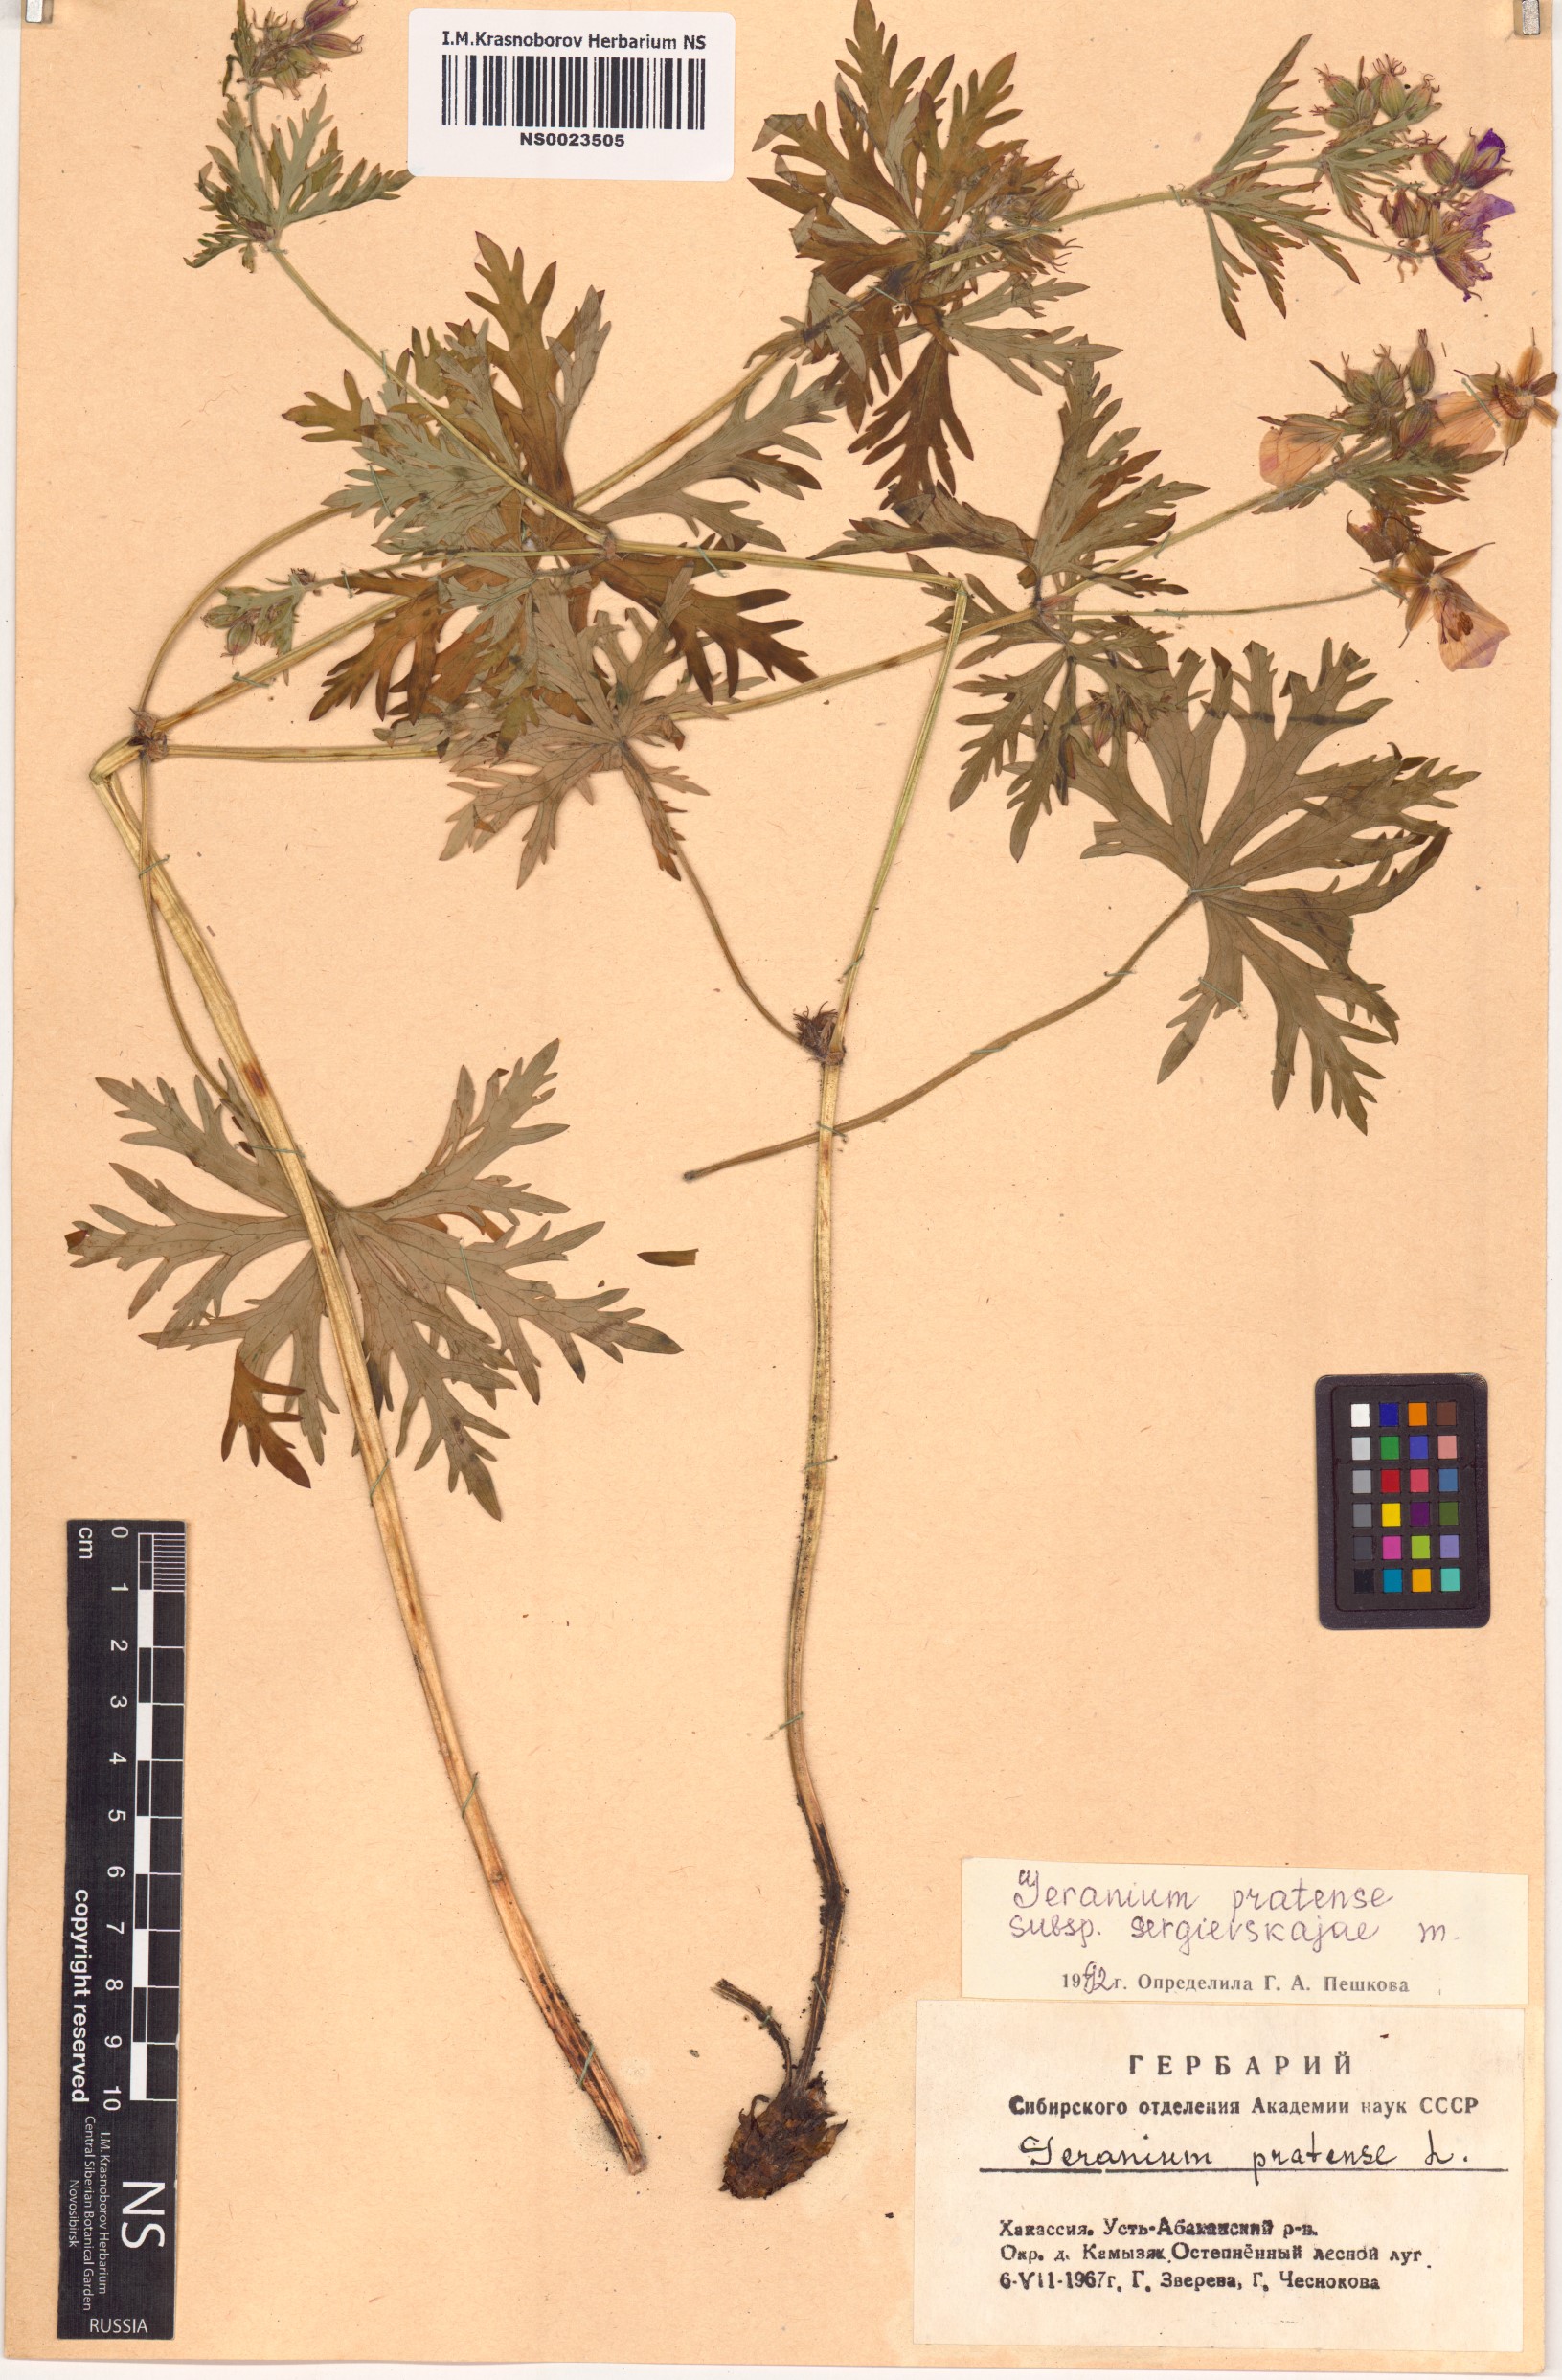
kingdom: Plantae
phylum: Tracheophyta
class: Magnoliopsida
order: Geraniales
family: Geraniaceae
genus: Geranium
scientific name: Geranium pratense
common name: Meadow crane's-bill
